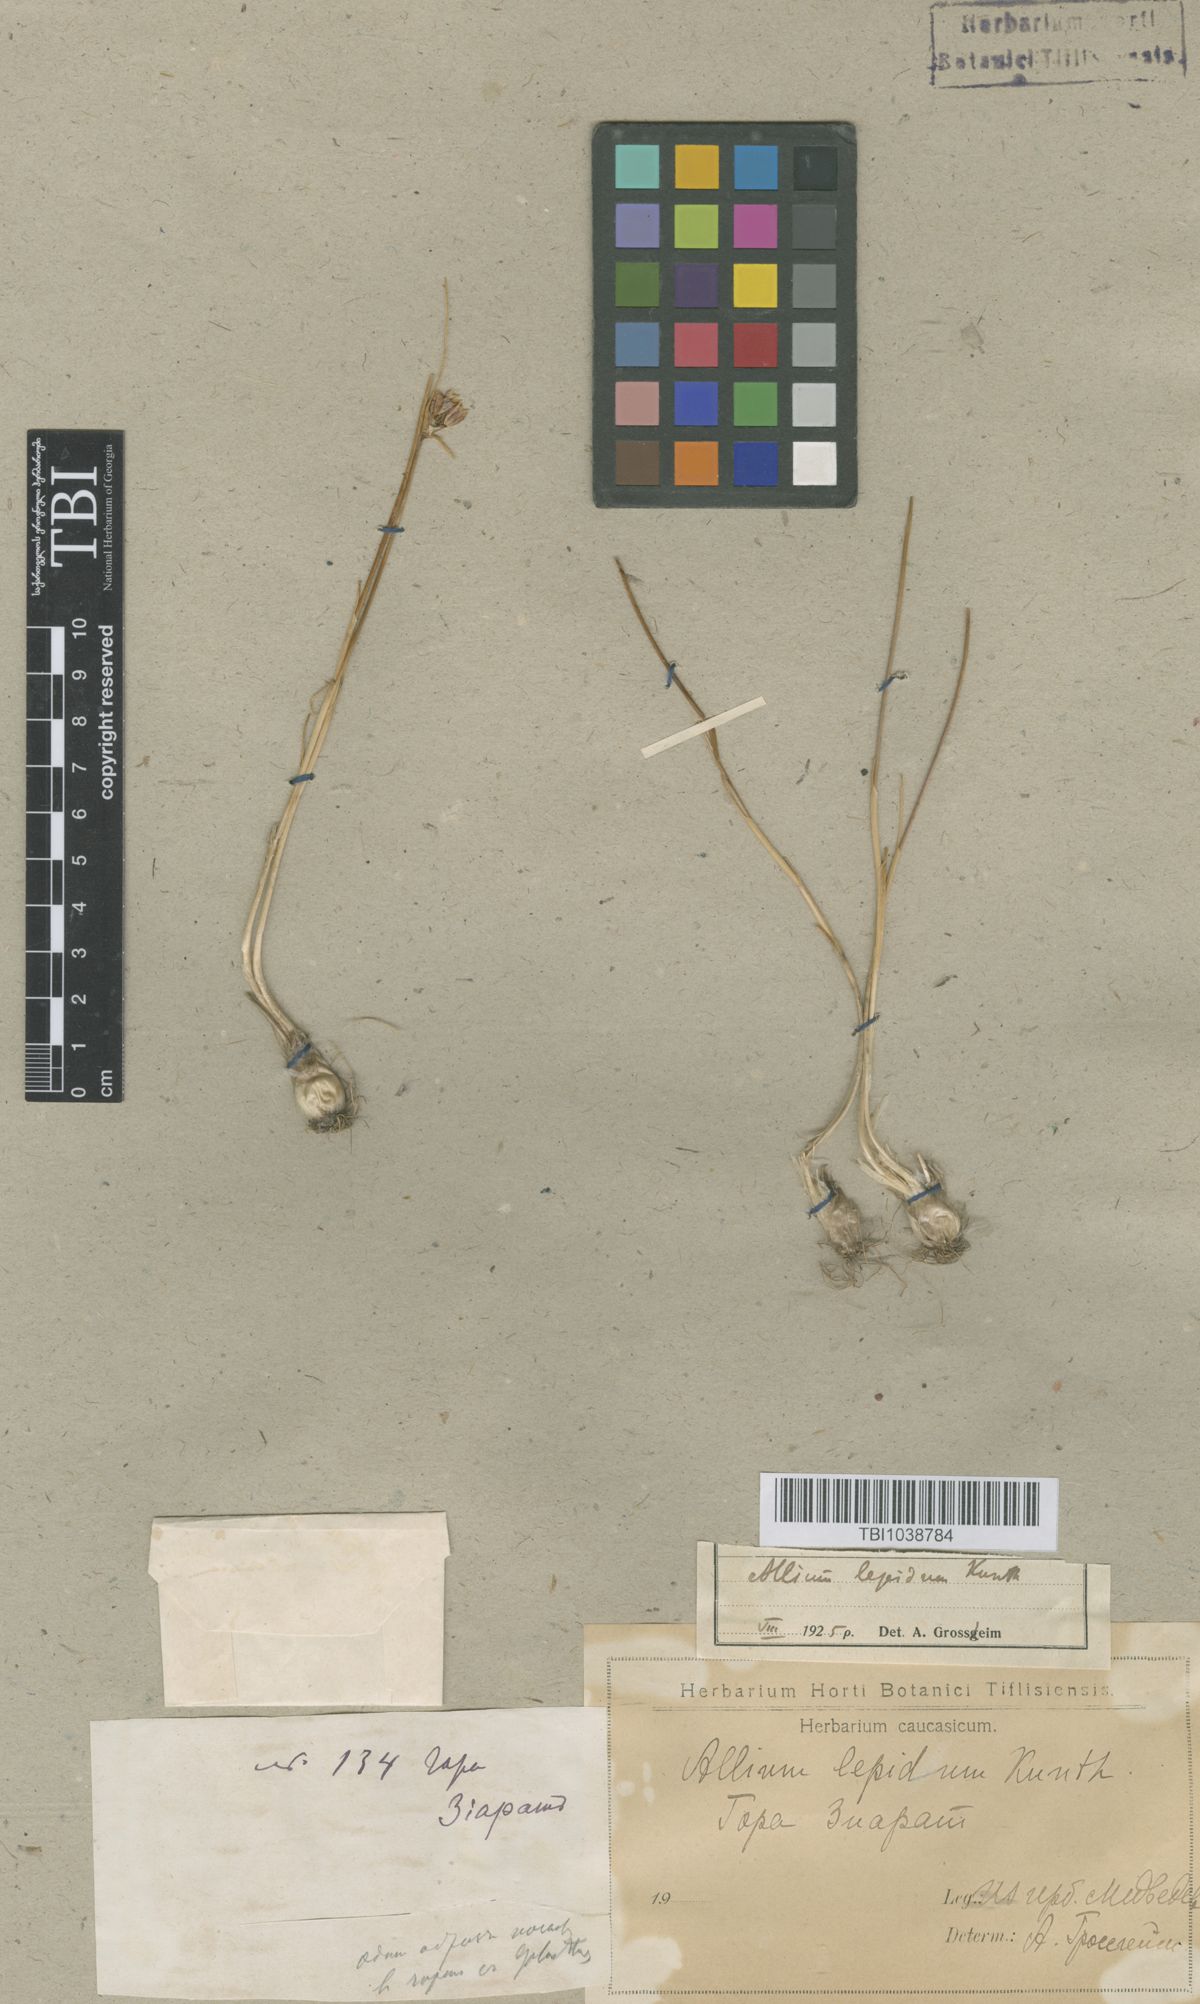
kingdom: Plantae
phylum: Tracheophyta
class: Liliopsida
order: Asparagales
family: Amaryllidaceae
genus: Allium
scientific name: Allium kunthianum
